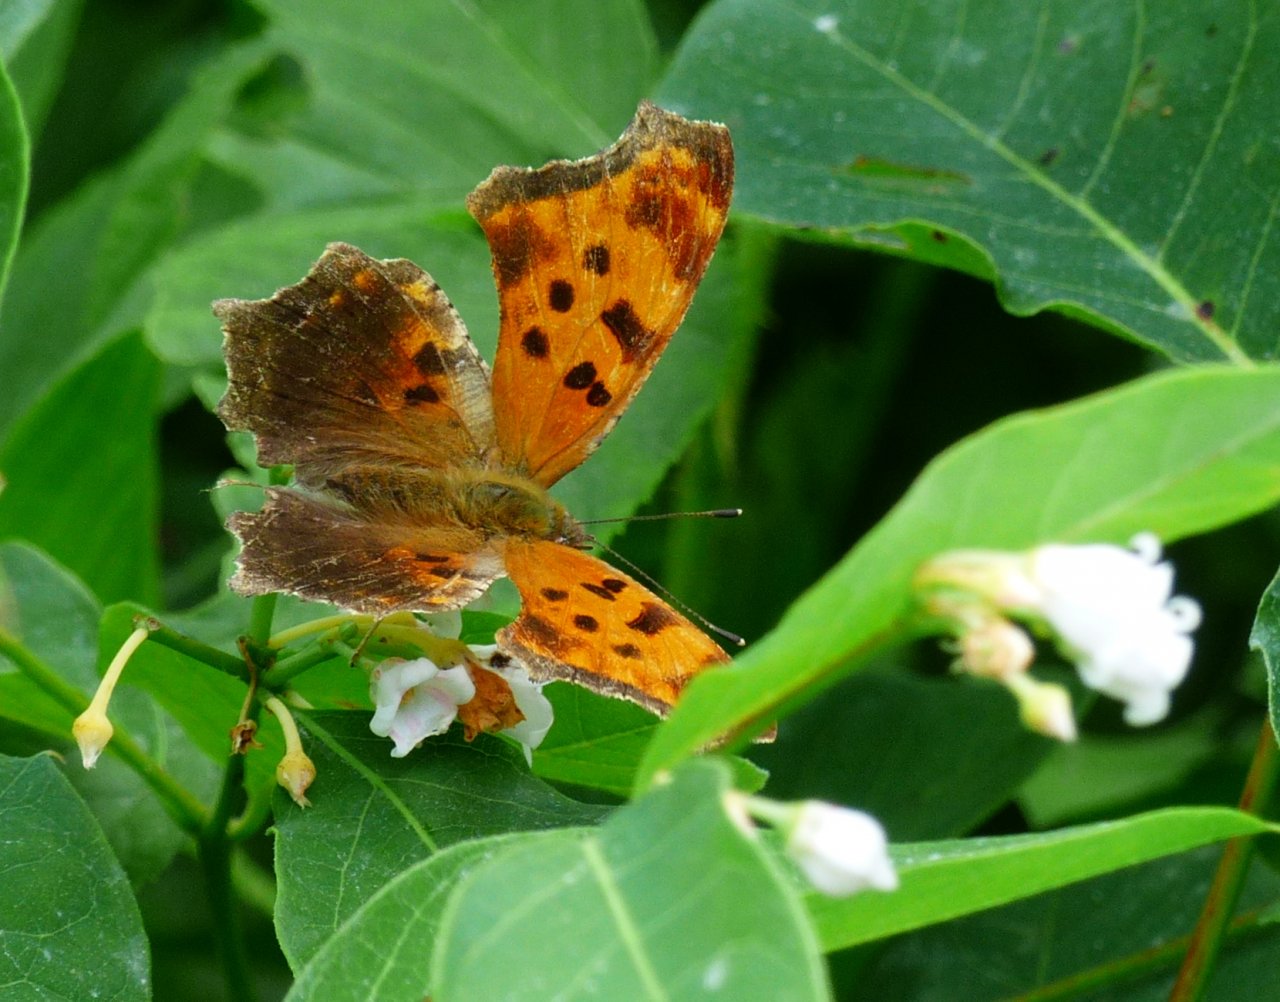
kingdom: Animalia
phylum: Arthropoda
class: Insecta
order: Lepidoptera
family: Nymphalidae
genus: Polygonia
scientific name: Polygonia comma
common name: Eastern Comma
